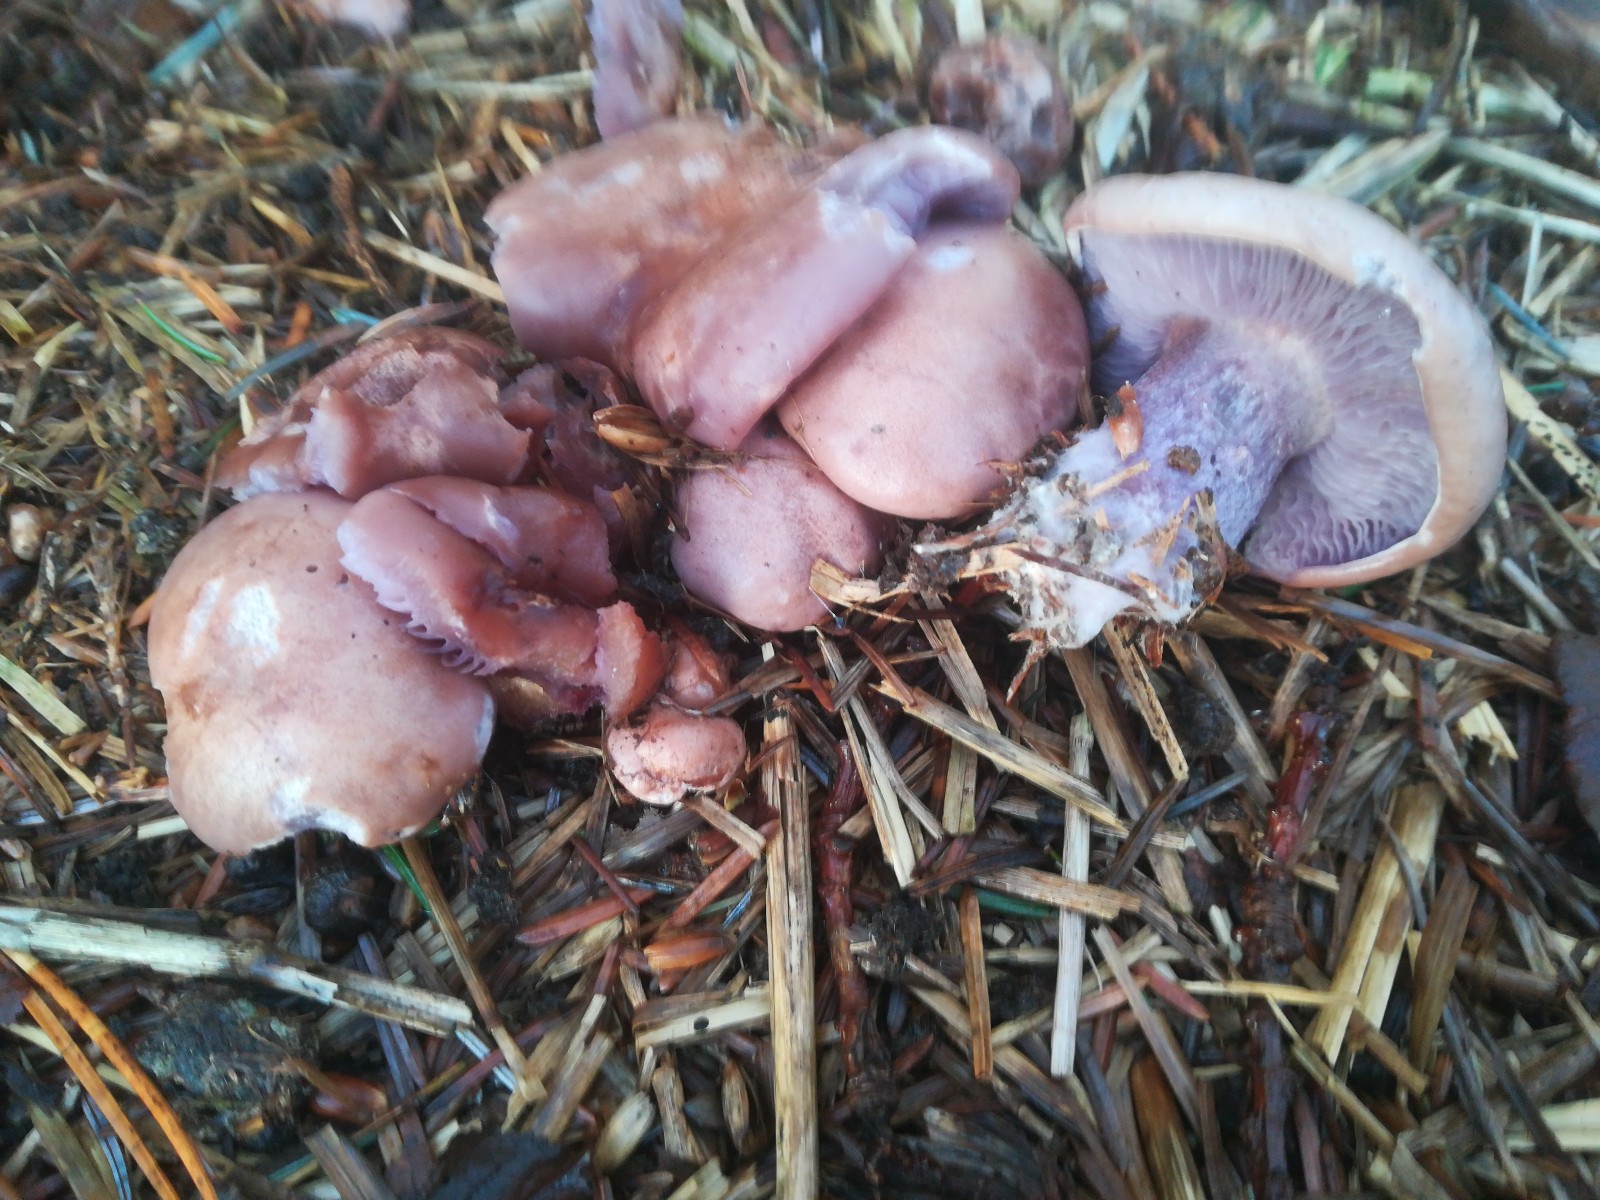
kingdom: Fungi
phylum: Basidiomycota
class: Agaricomycetes
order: Agaricales
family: Tricholomataceae
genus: Lepista
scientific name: Lepista nuda
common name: violet hekseringshat
